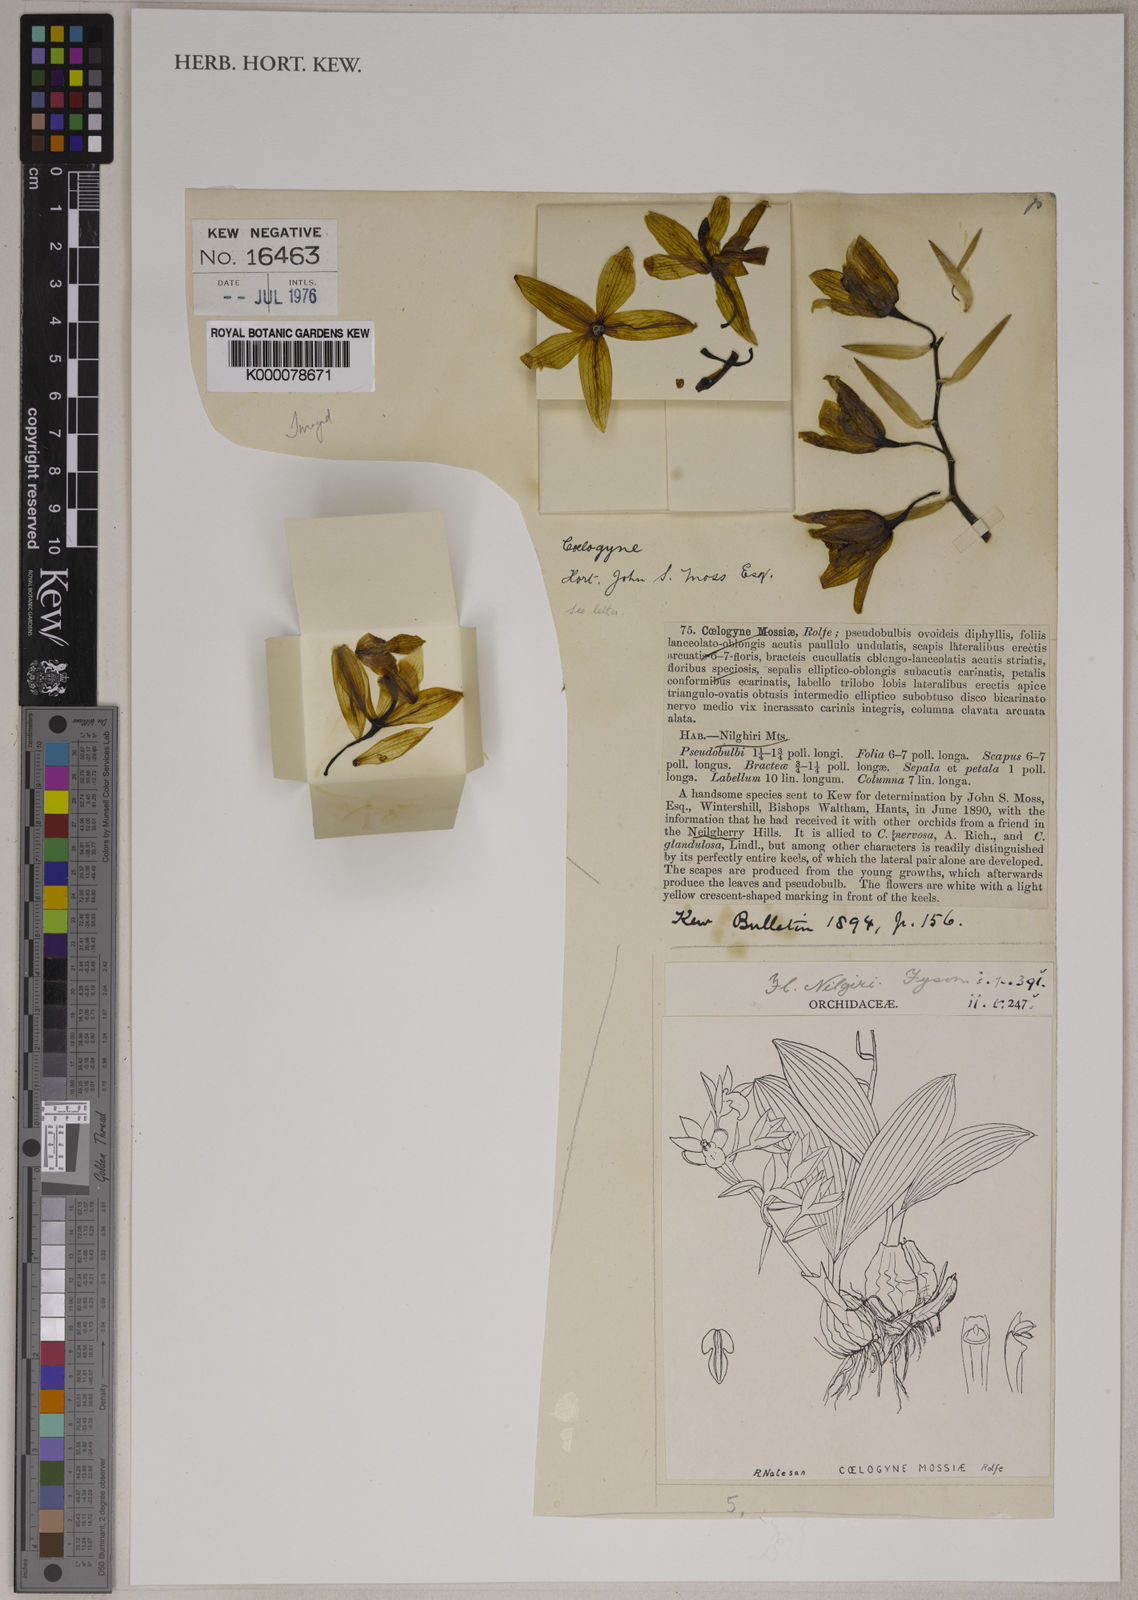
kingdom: Plantae
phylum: Tracheophyta
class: Liliopsida
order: Asparagales
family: Orchidaceae
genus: Coelogyne
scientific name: Coelogyne mossiae
